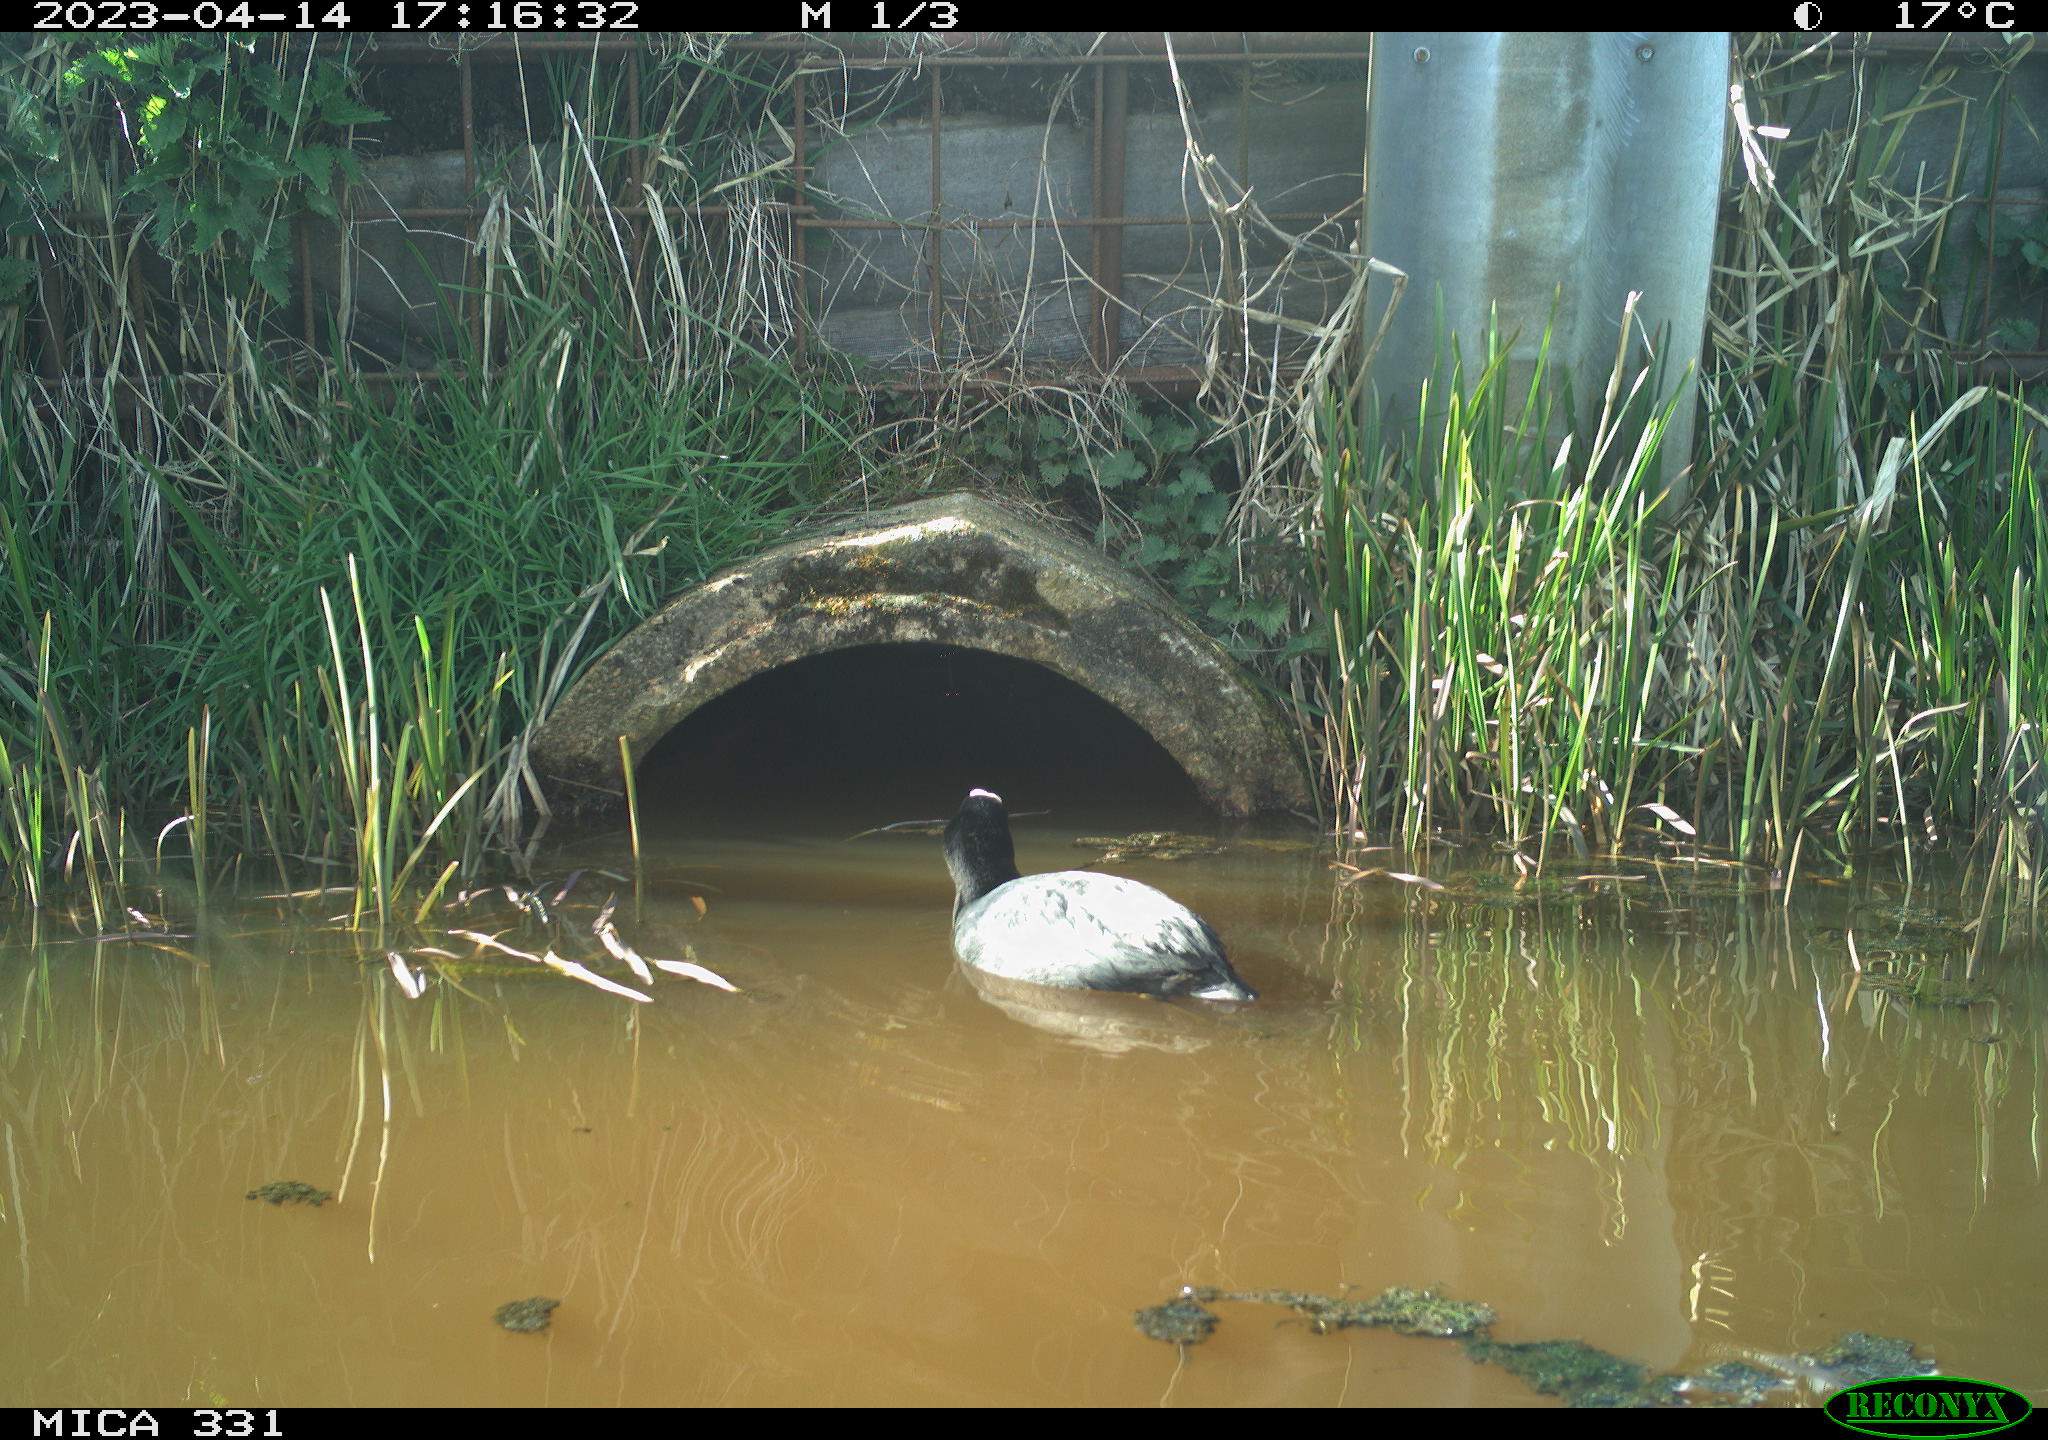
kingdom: Animalia
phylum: Chordata
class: Aves
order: Anseriformes
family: Anatidae
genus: Anas
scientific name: Anas
